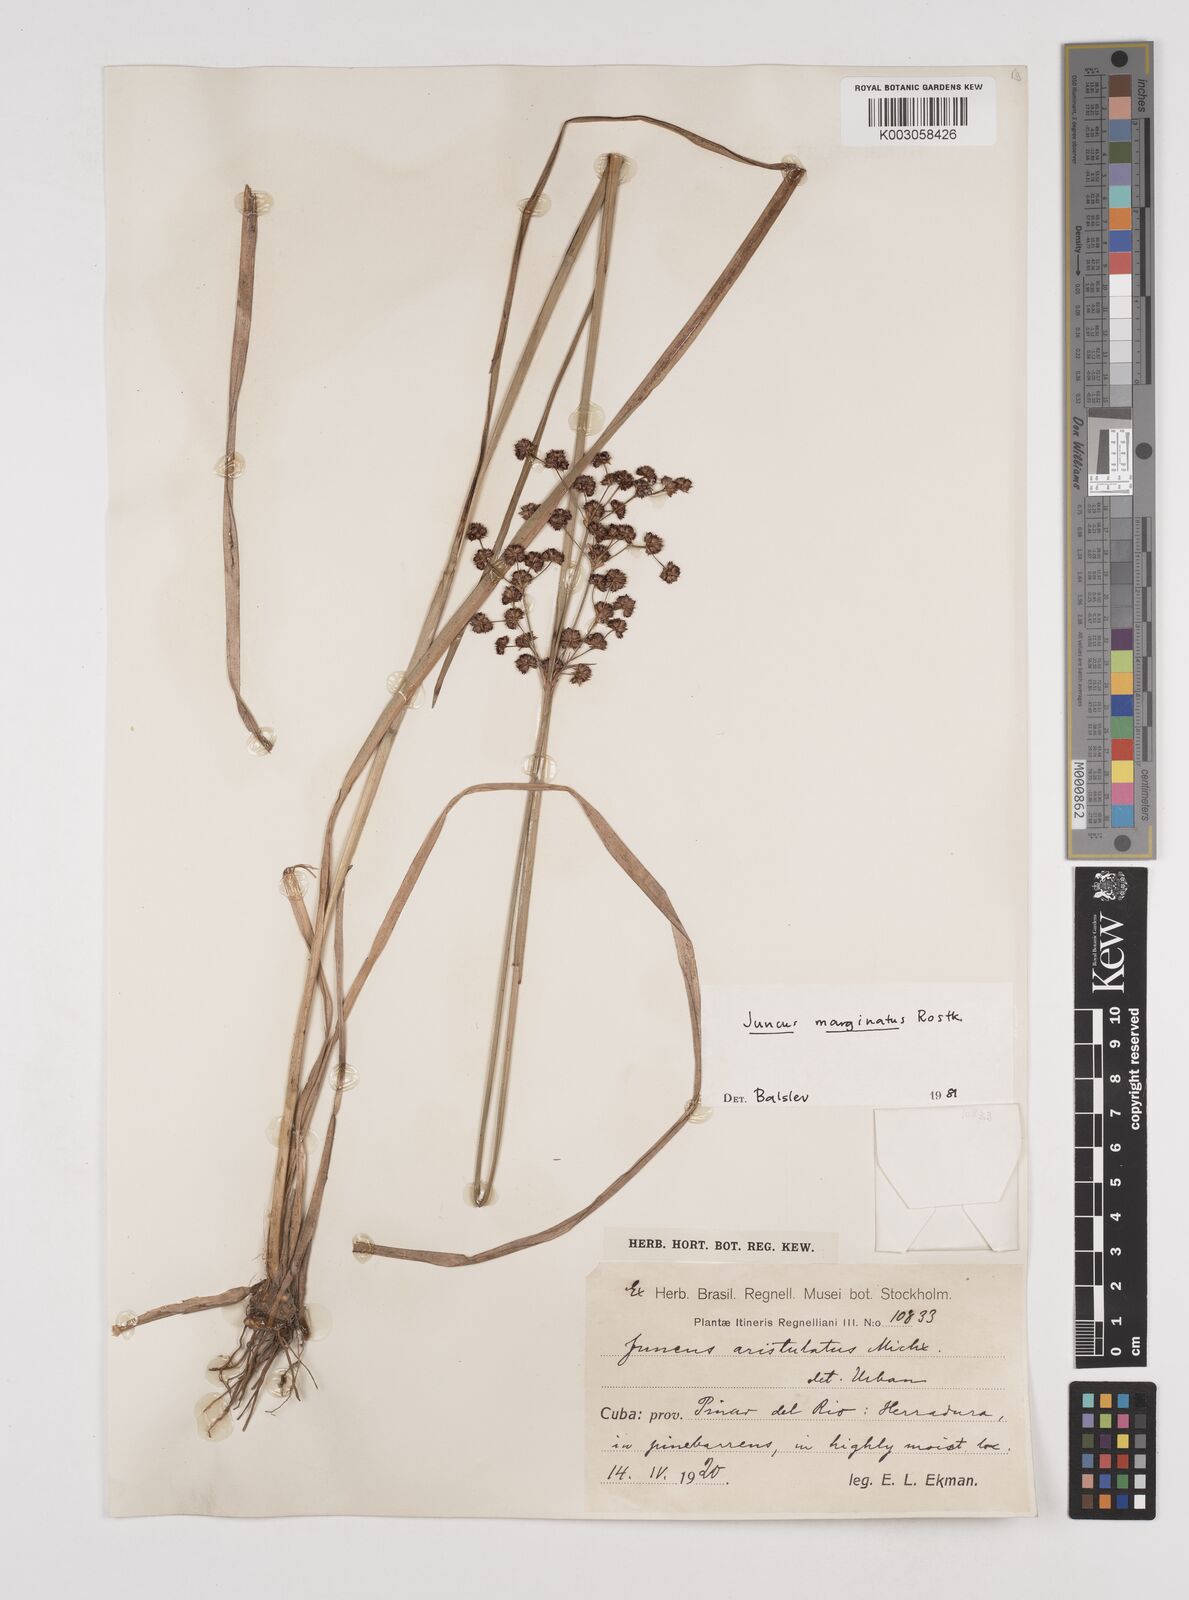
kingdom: Plantae
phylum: Tracheophyta
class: Liliopsida
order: Poales
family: Juncaceae
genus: Juncus
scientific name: Juncus marginatus
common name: Grass-leaf rush
